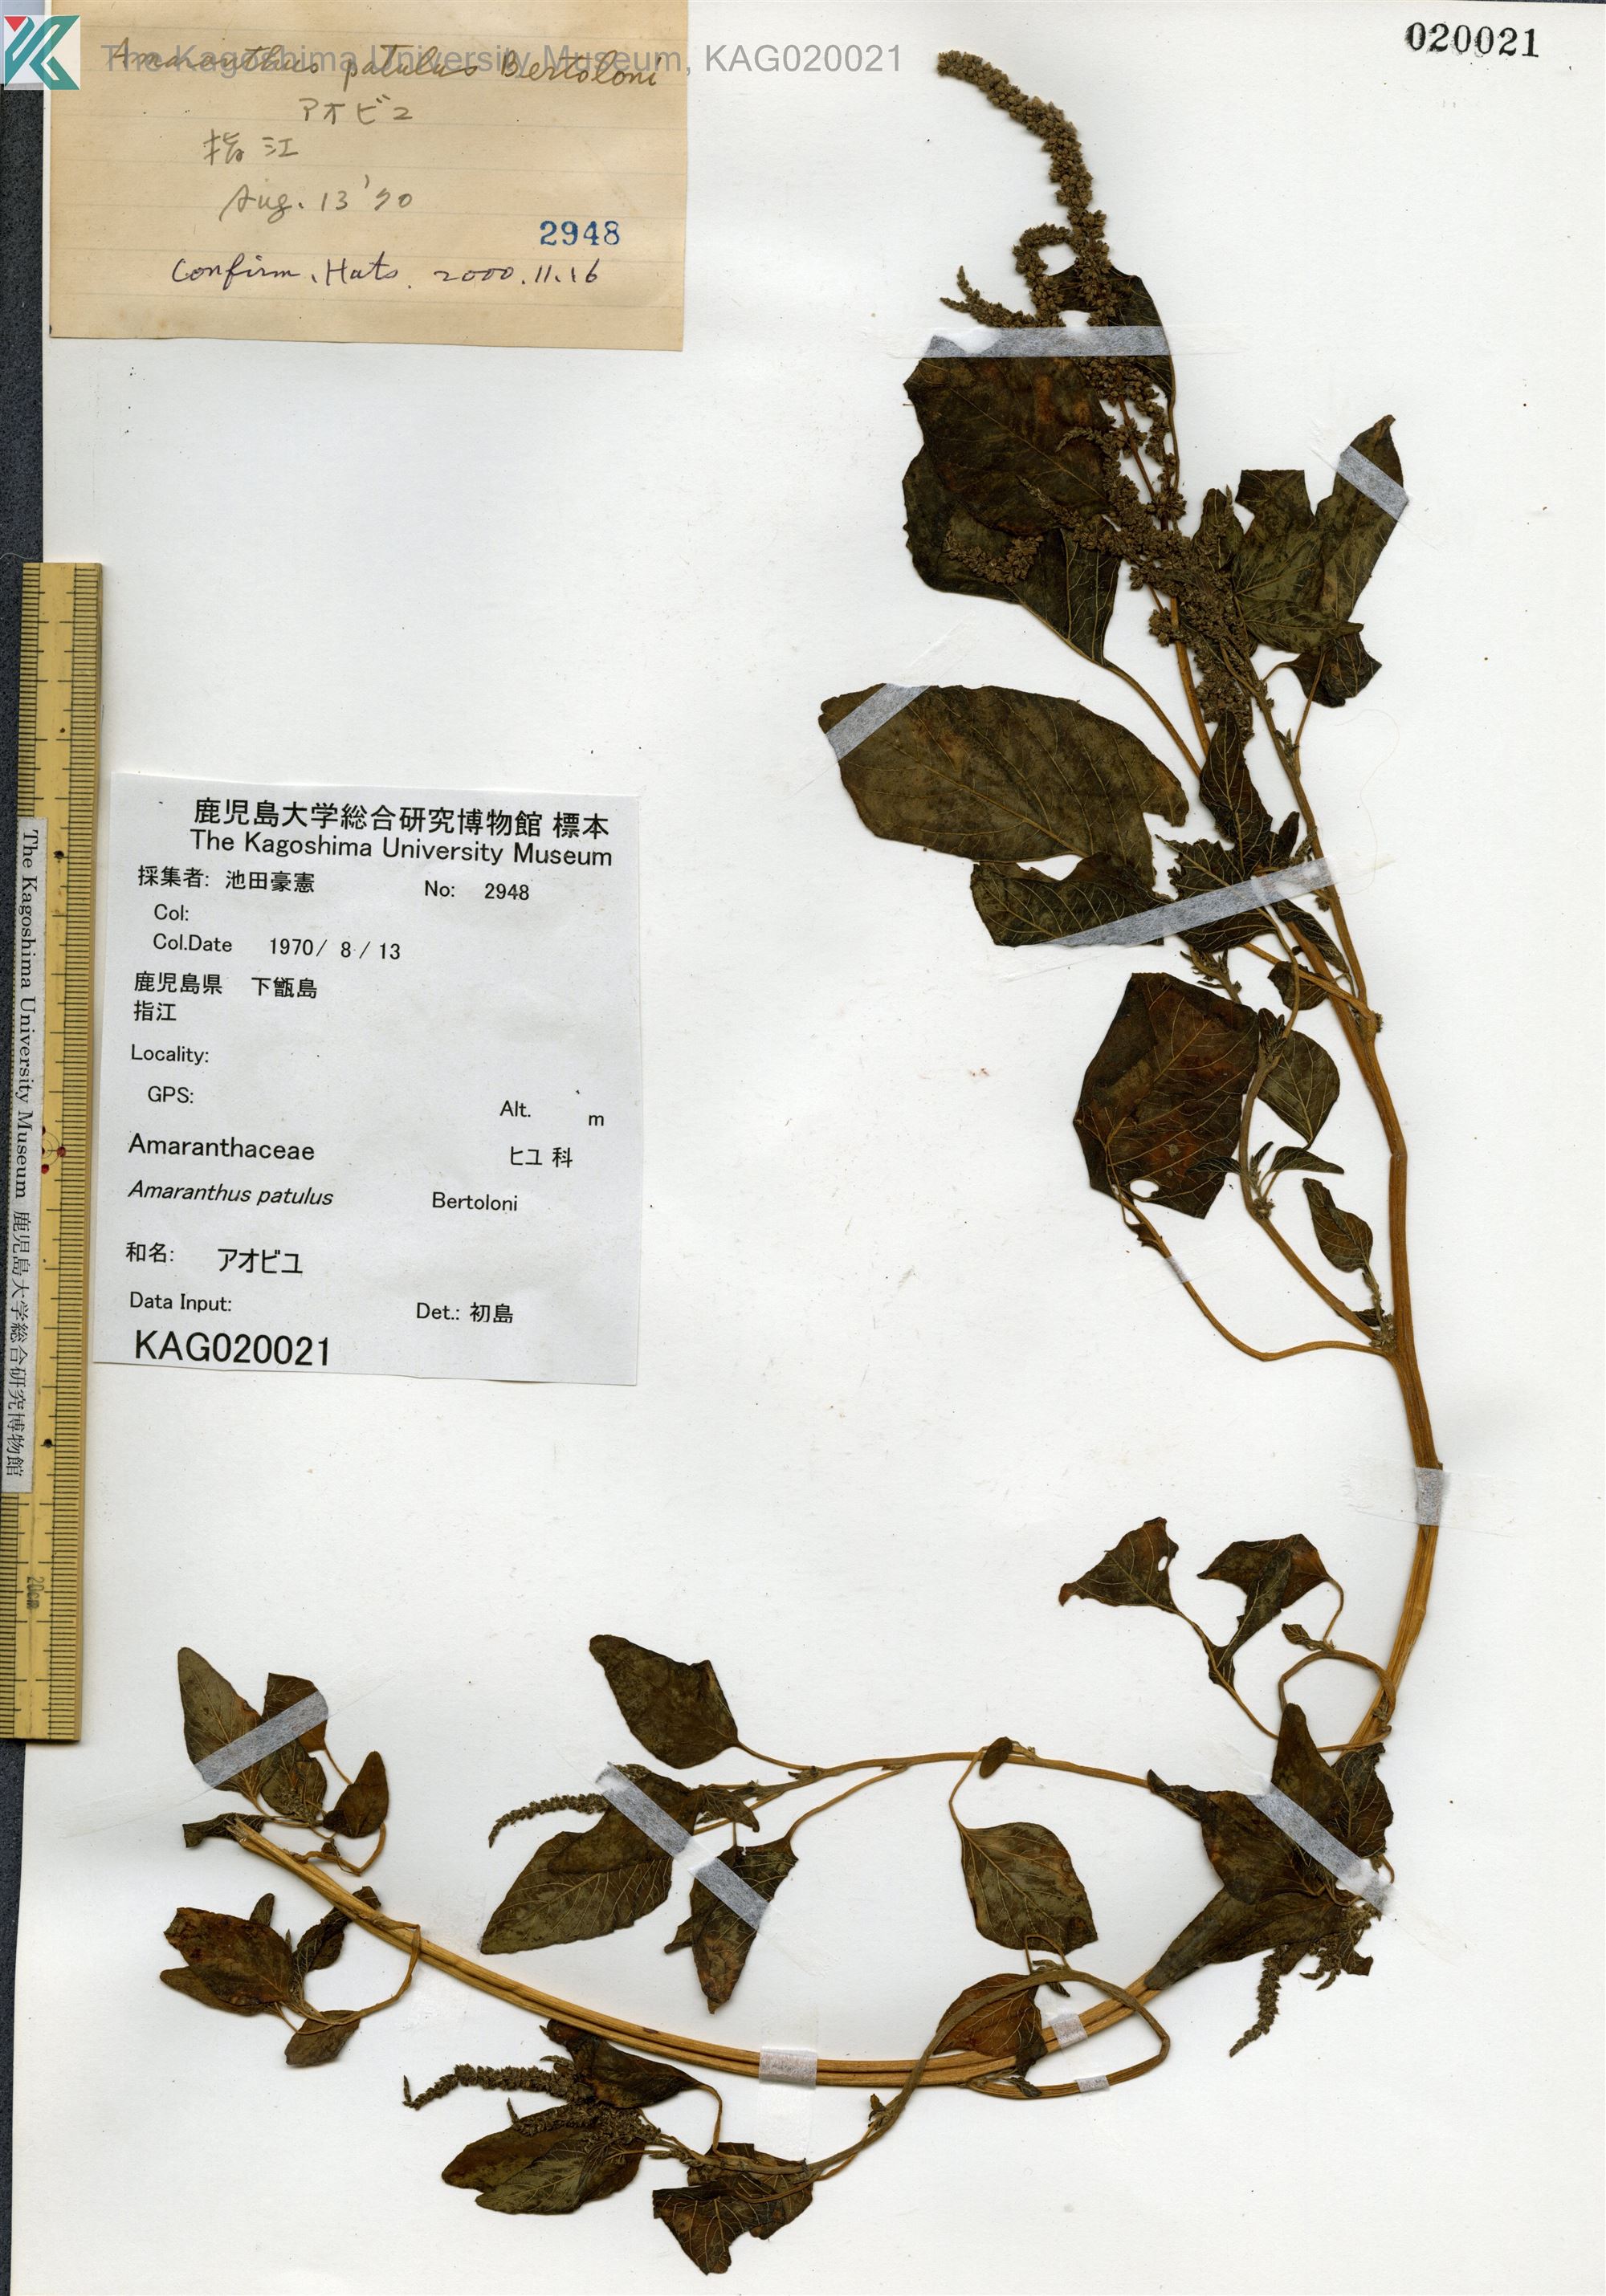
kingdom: Plantae
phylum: Tracheophyta
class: Magnoliopsida
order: Caryophyllales
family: Amaranthaceae
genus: Amaranthus
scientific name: Amaranthus hybridus
